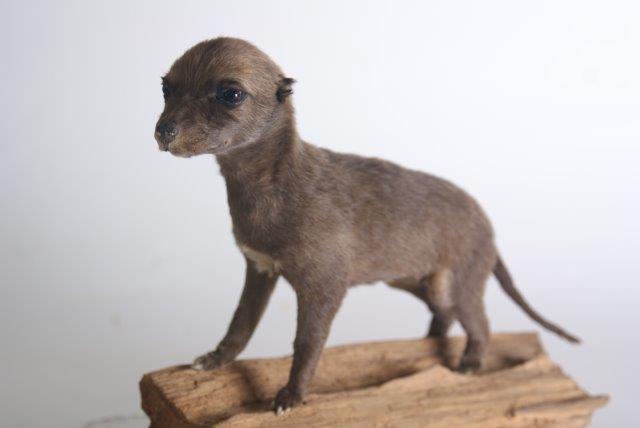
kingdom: Animalia
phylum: Chordata
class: Mammalia
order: Carnivora
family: Canidae
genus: Canis
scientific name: Canis lupus
